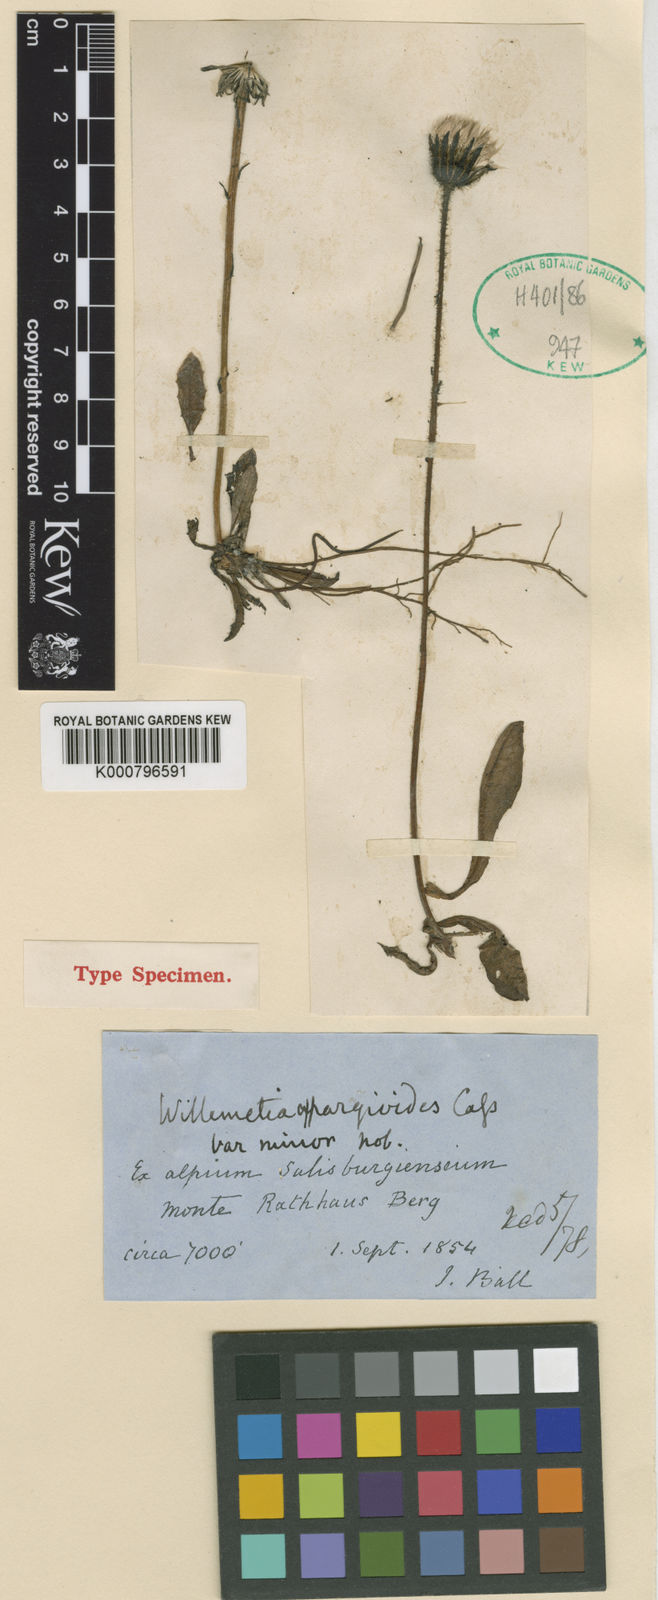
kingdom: Plantae
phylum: Tracheophyta
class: Magnoliopsida
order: Asterales
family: Asteraceae
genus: Willemetia
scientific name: Willemetia stipitata
